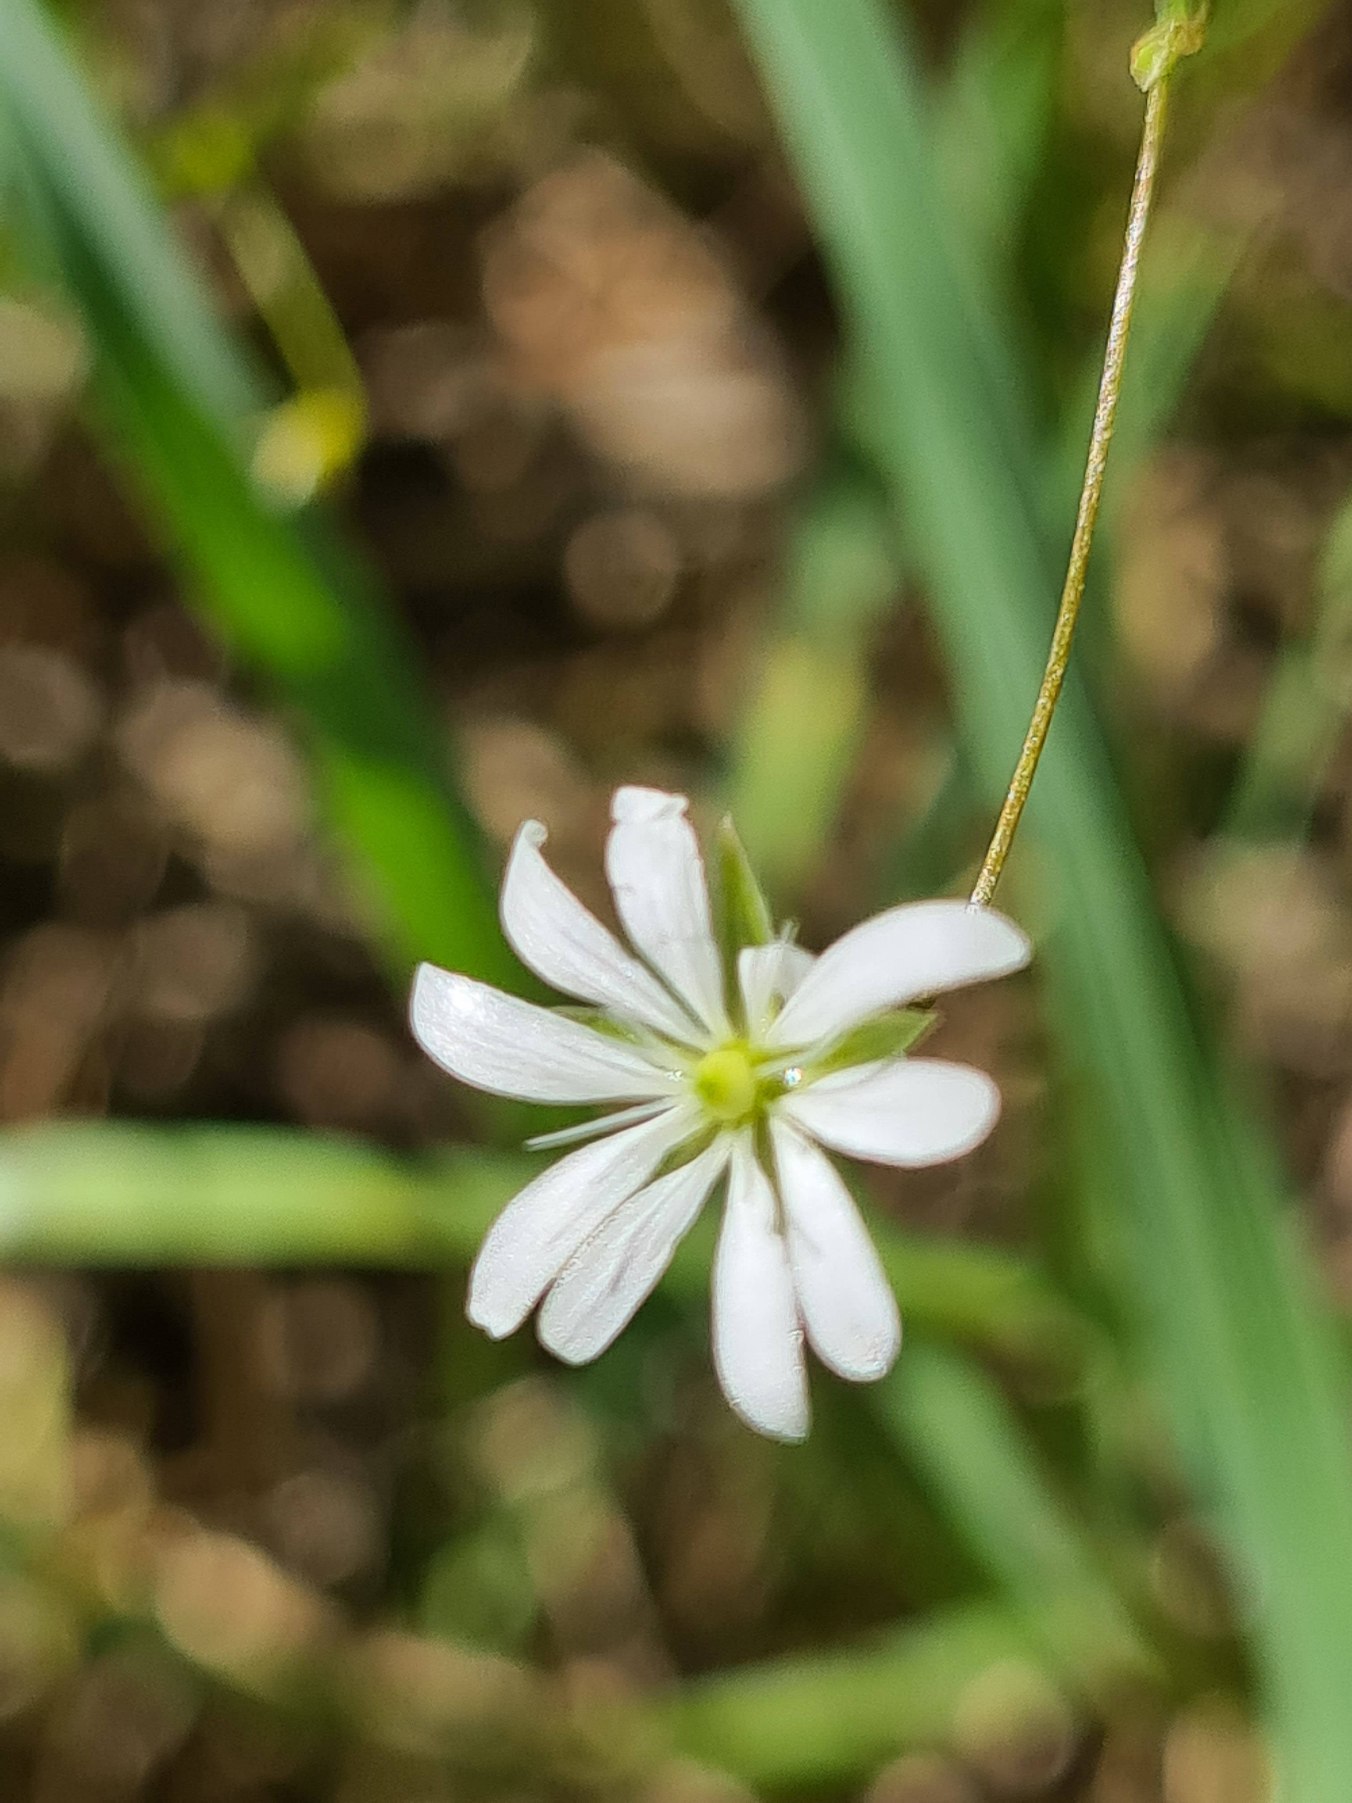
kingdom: Plantae
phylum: Tracheophyta
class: Magnoliopsida
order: Caryophyllales
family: Caryophyllaceae
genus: Stellaria
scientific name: Stellaria graminea
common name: Græsbladet fladstjerne
